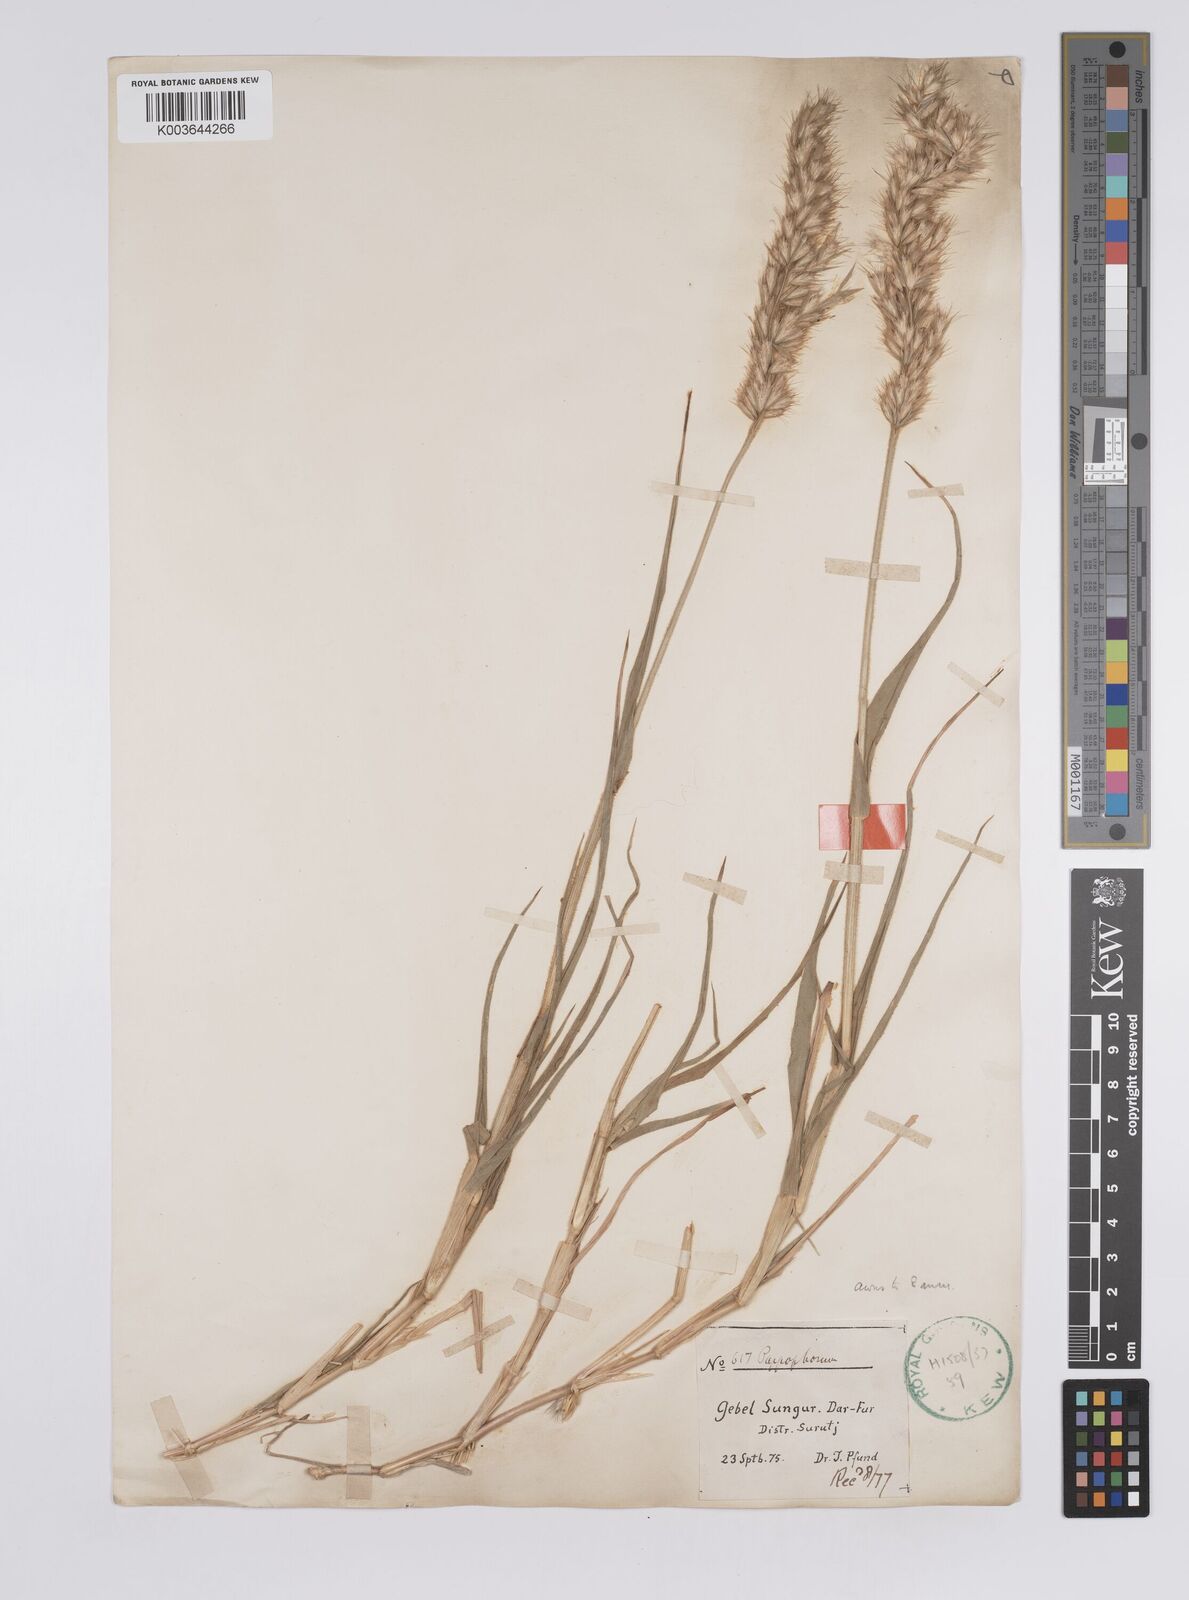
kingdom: Plantae
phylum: Tracheophyta
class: Liliopsida
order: Poales
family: Poaceae
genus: Schmidtia
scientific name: Schmidtia kalahariensis
